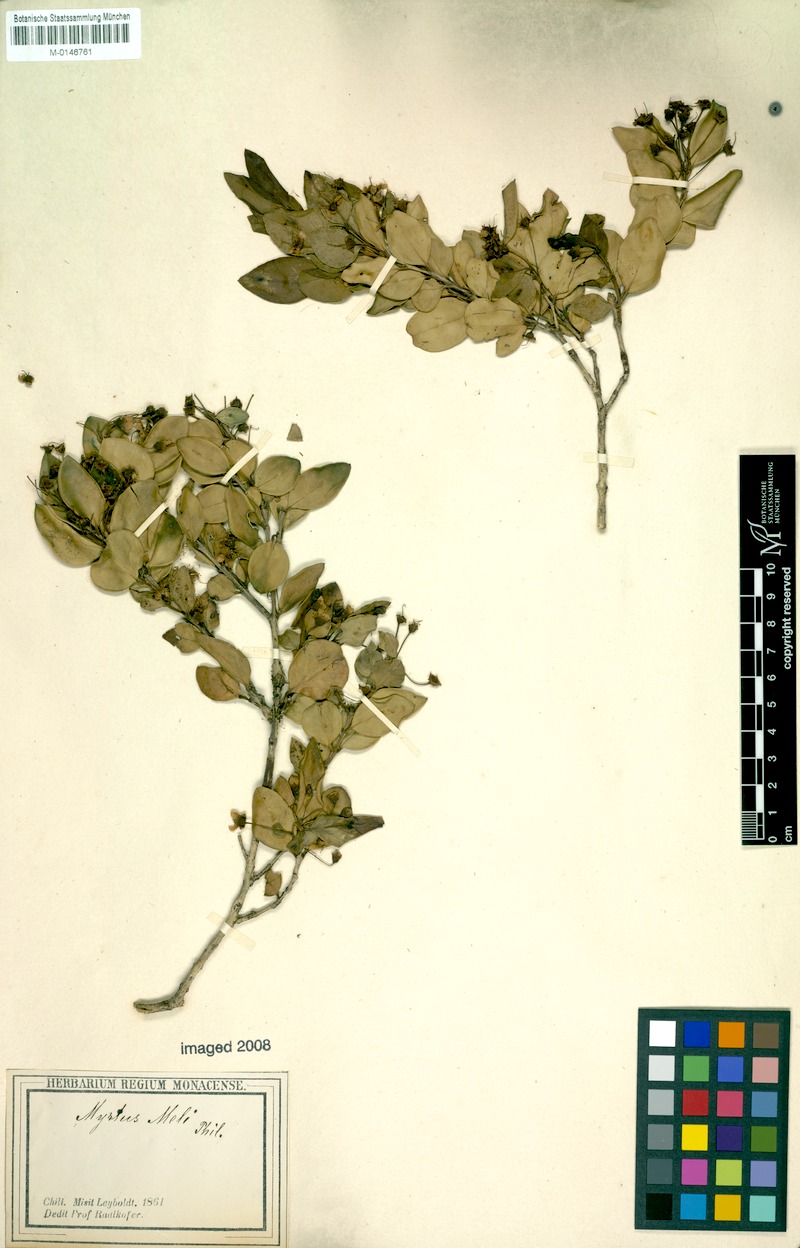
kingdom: Plantae
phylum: Tracheophyta
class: Magnoliopsida
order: Myrtales
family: Myrtaceae
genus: Amomyrtus
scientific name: Amomyrtus meli
